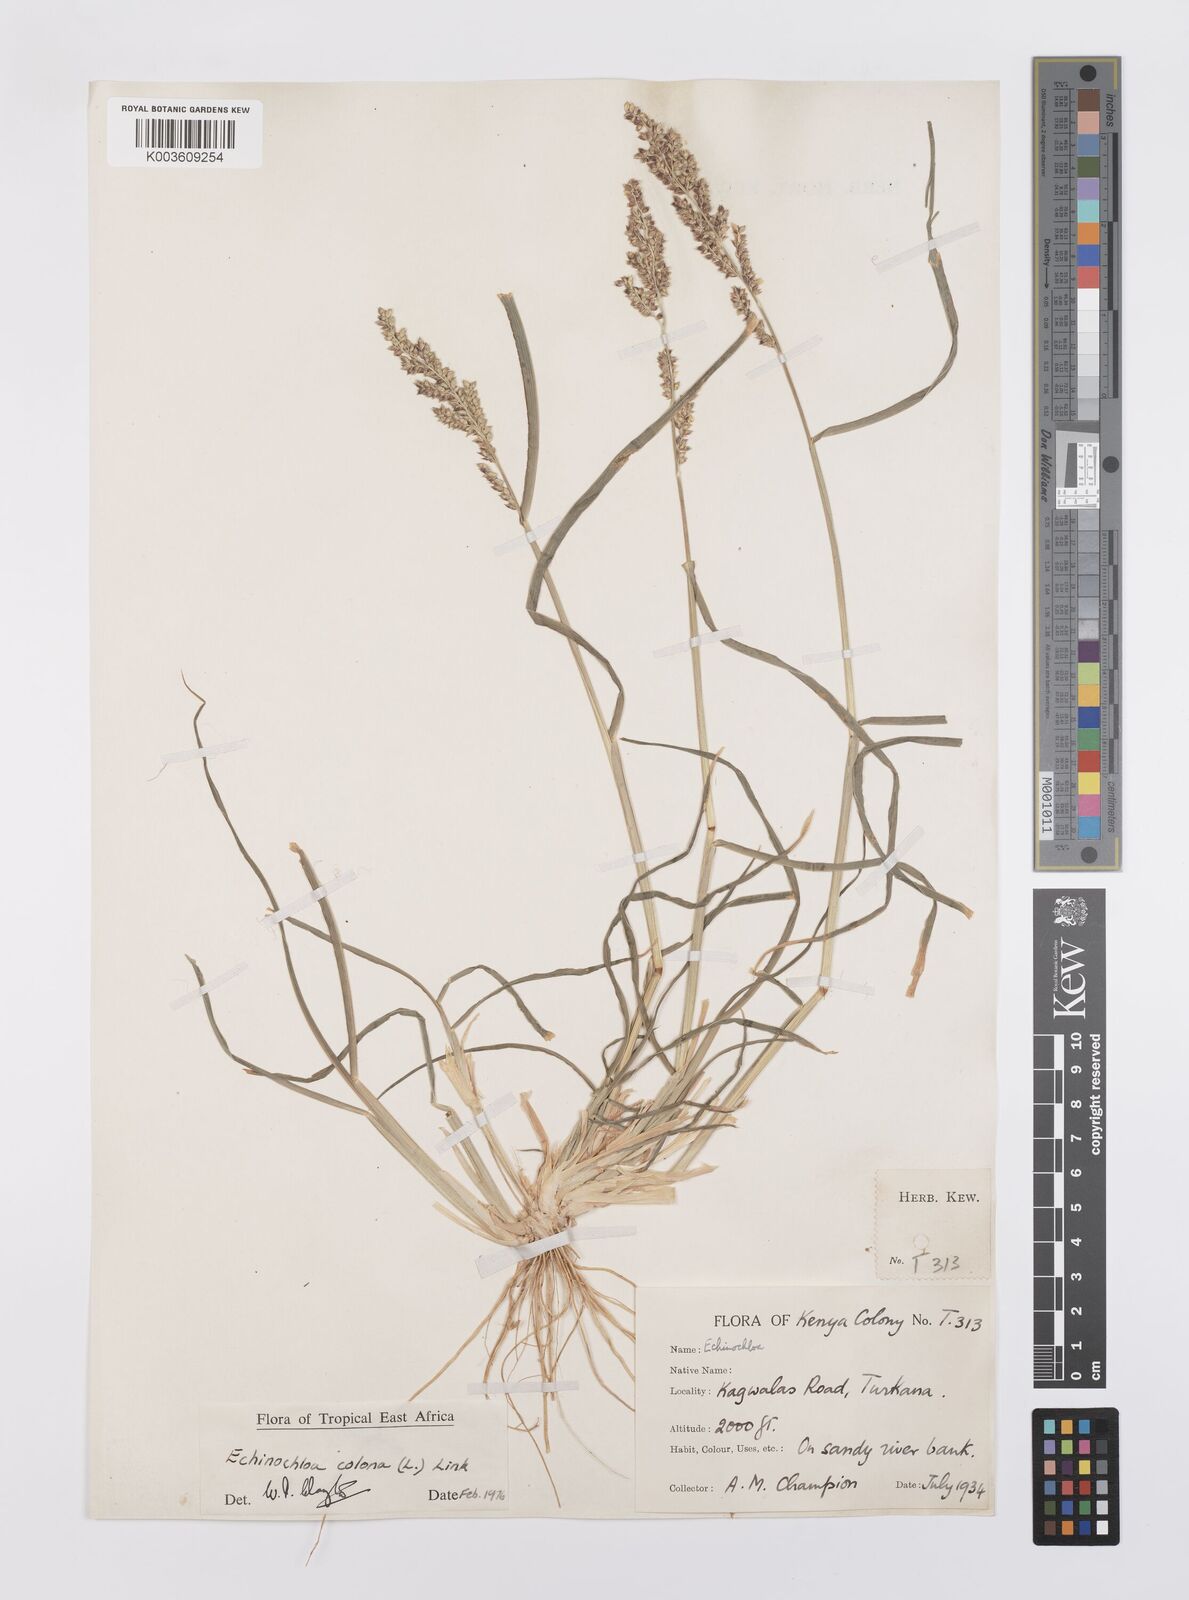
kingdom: Plantae
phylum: Tracheophyta
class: Liliopsida
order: Poales
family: Poaceae
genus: Echinochloa
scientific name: Echinochloa colonum
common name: Jungle rice
